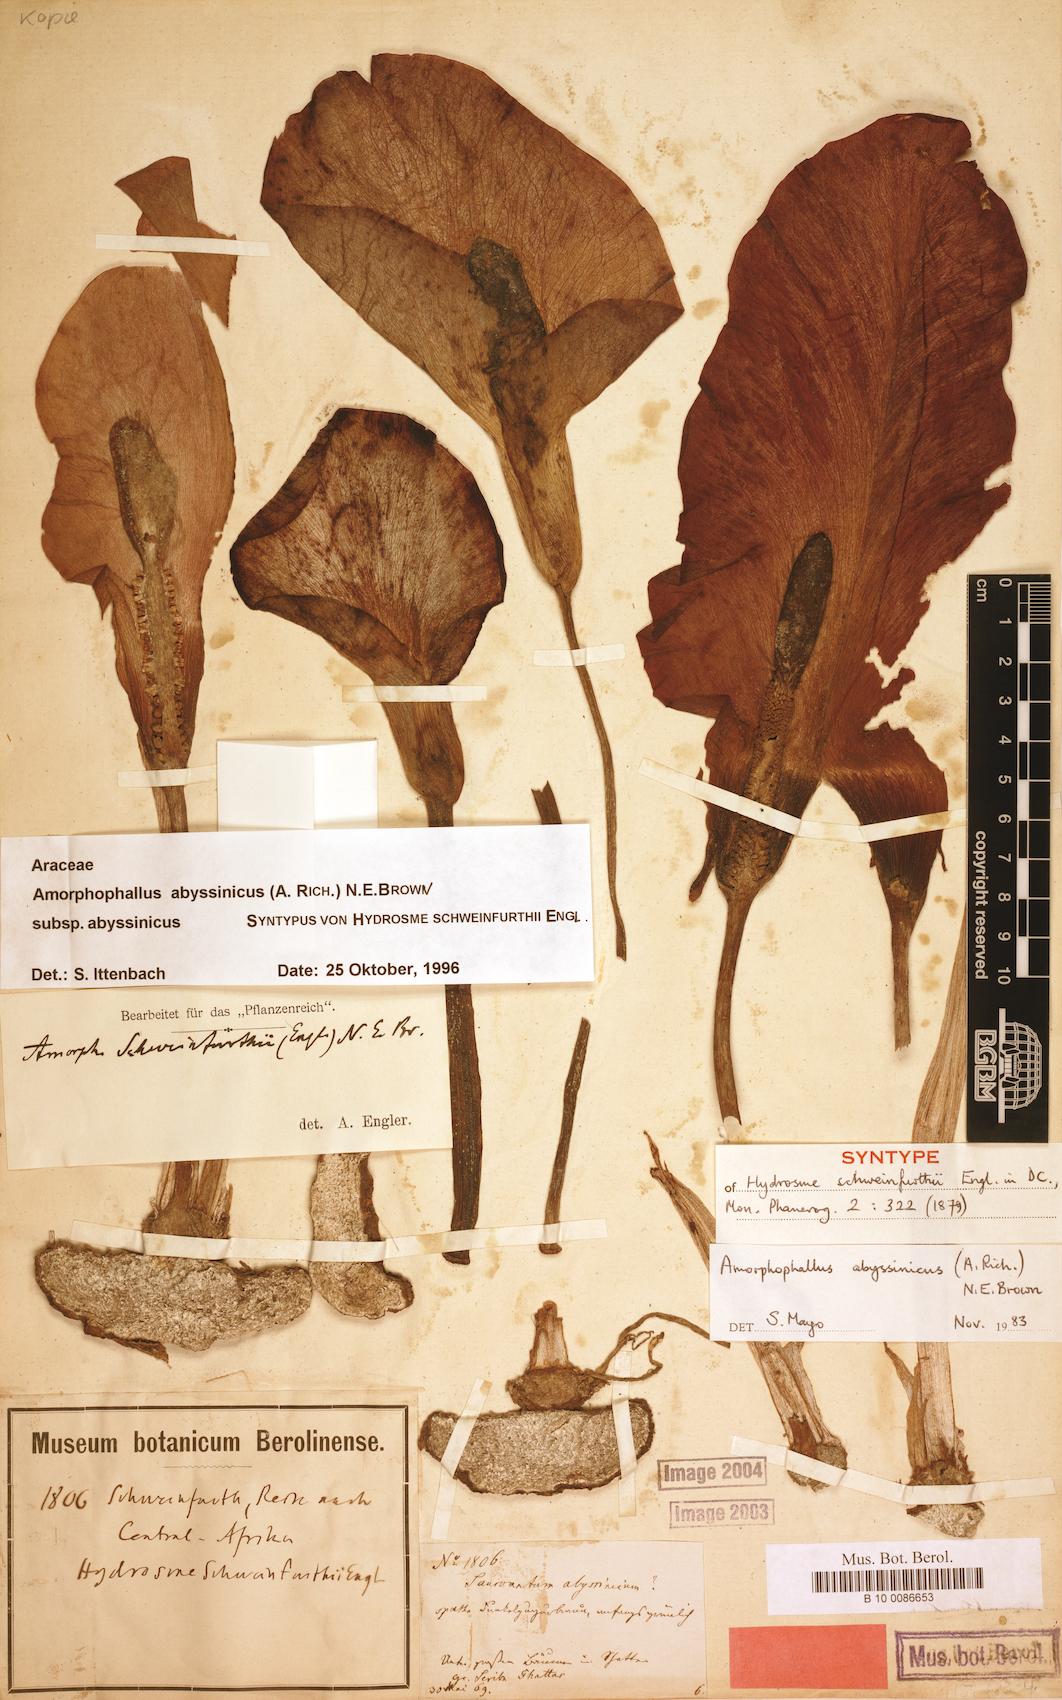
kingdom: Plantae
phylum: Tracheophyta
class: Liliopsida
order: Alismatales
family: Araceae
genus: Amorphophallus
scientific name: Amorphophallus abyssinicus
